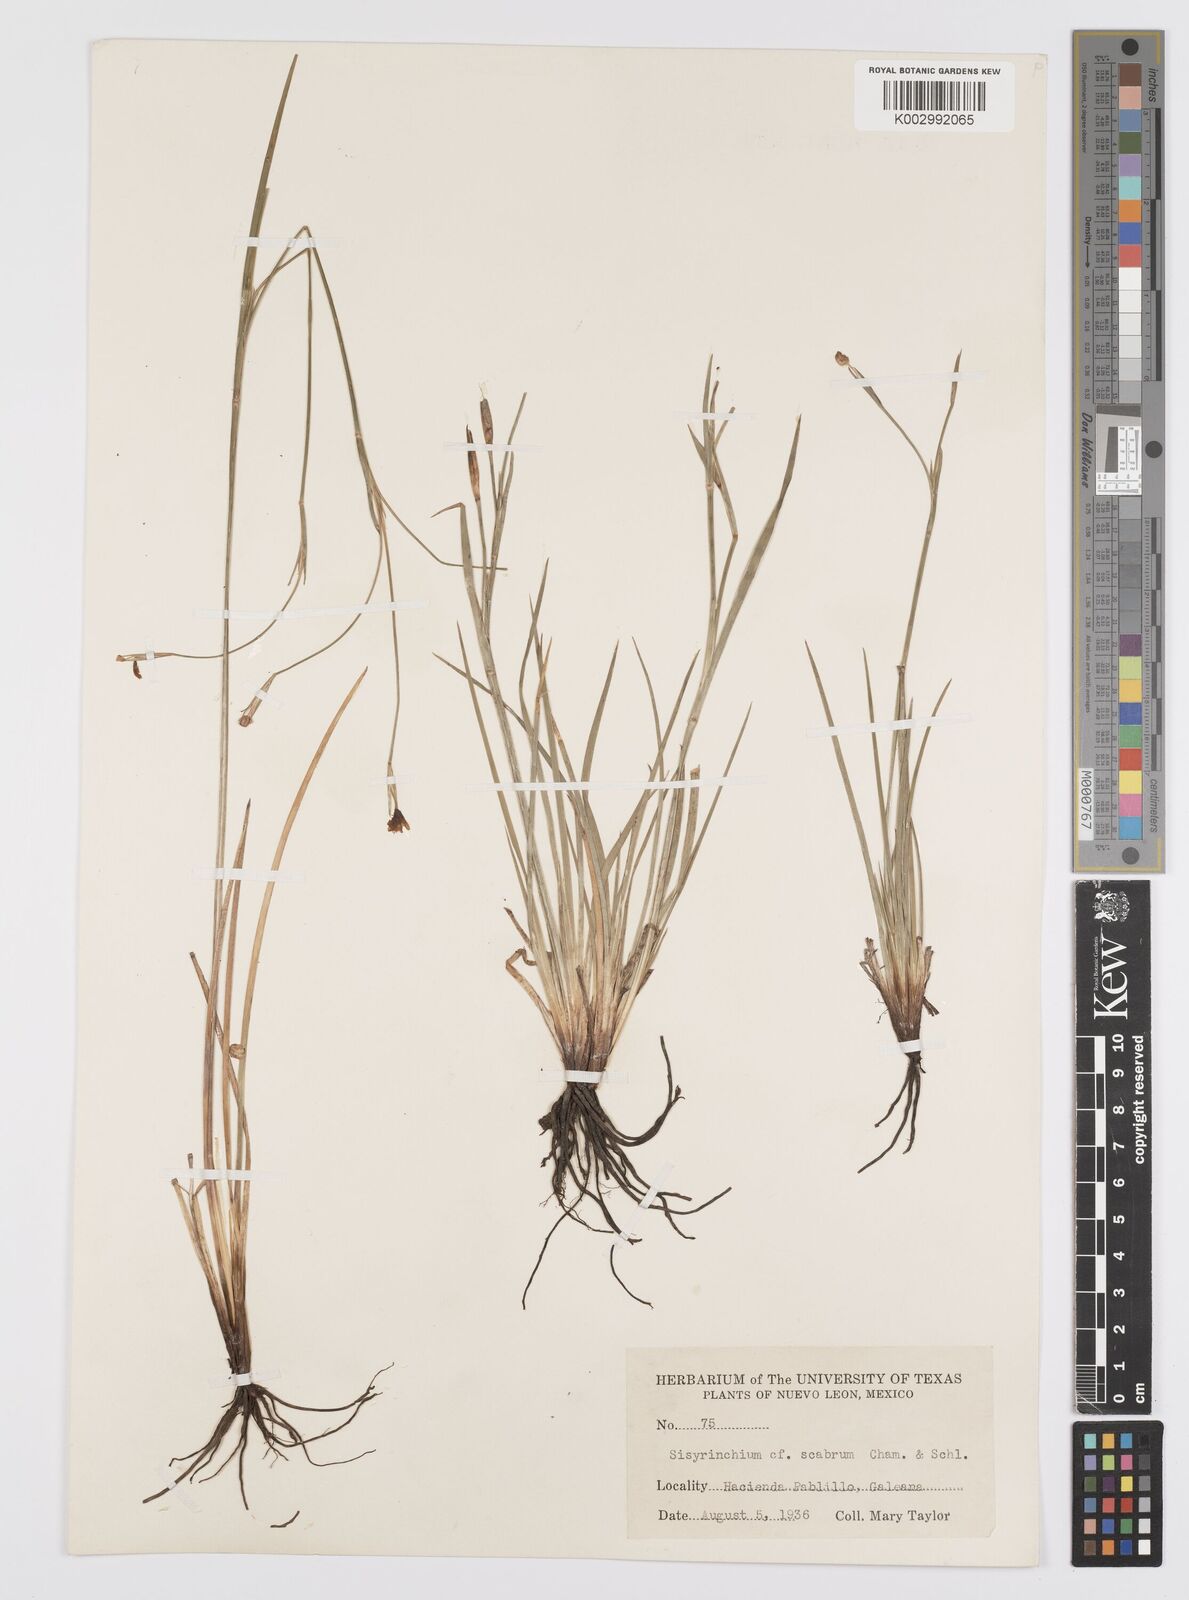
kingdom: Plantae
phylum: Tracheophyta
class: Liliopsida
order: Asparagales
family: Iridaceae
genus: Sisyrinchium
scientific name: Sisyrinchium scabrum
